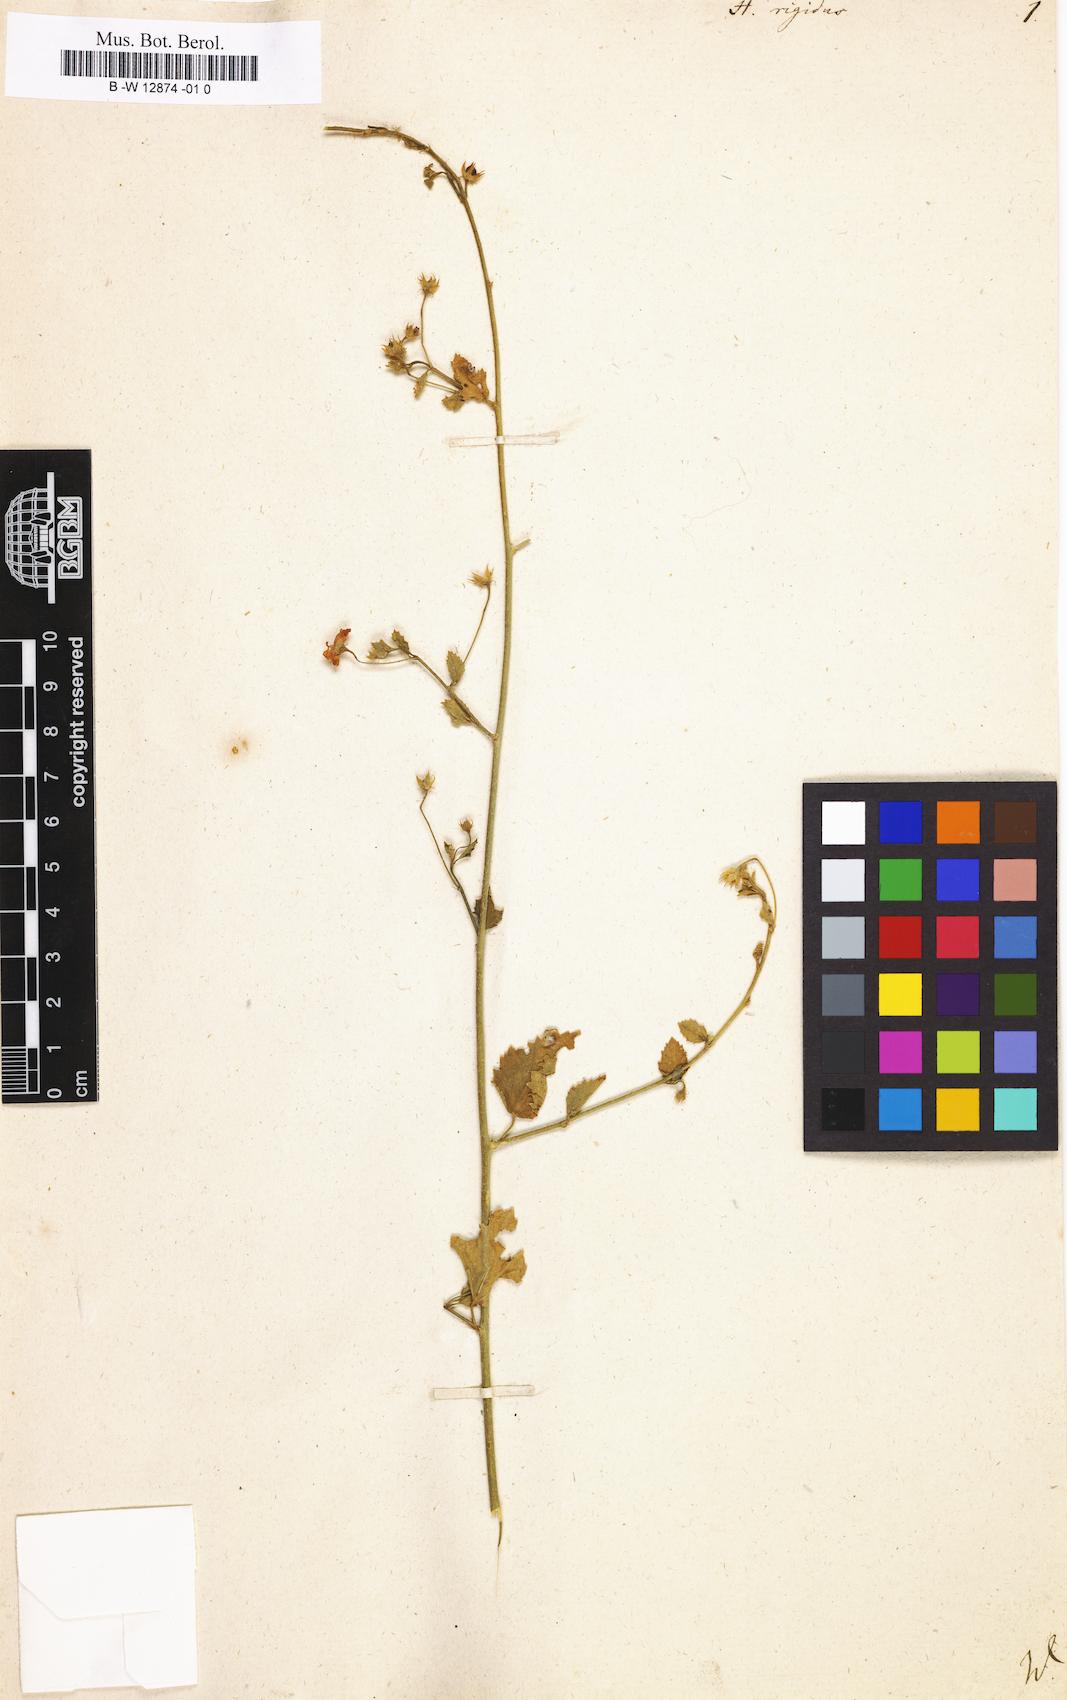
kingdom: Plantae
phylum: Tracheophyta
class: Magnoliopsida
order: Malvales
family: Malvaceae
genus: Hibiscus
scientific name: Hibiscus micranthus
